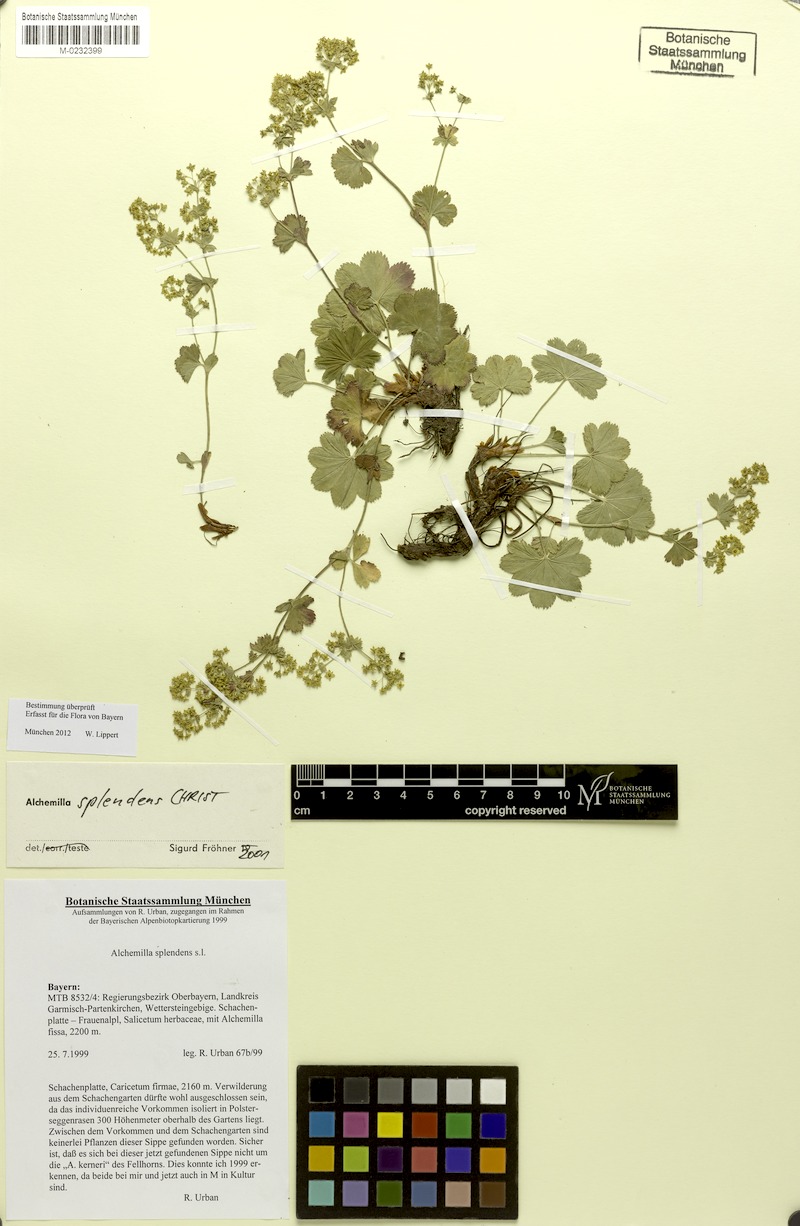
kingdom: Plantae
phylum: Tracheophyta
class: Magnoliopsida
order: Rosales
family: Rosaceae
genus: Alchemilla
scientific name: Alchemilla splendens
